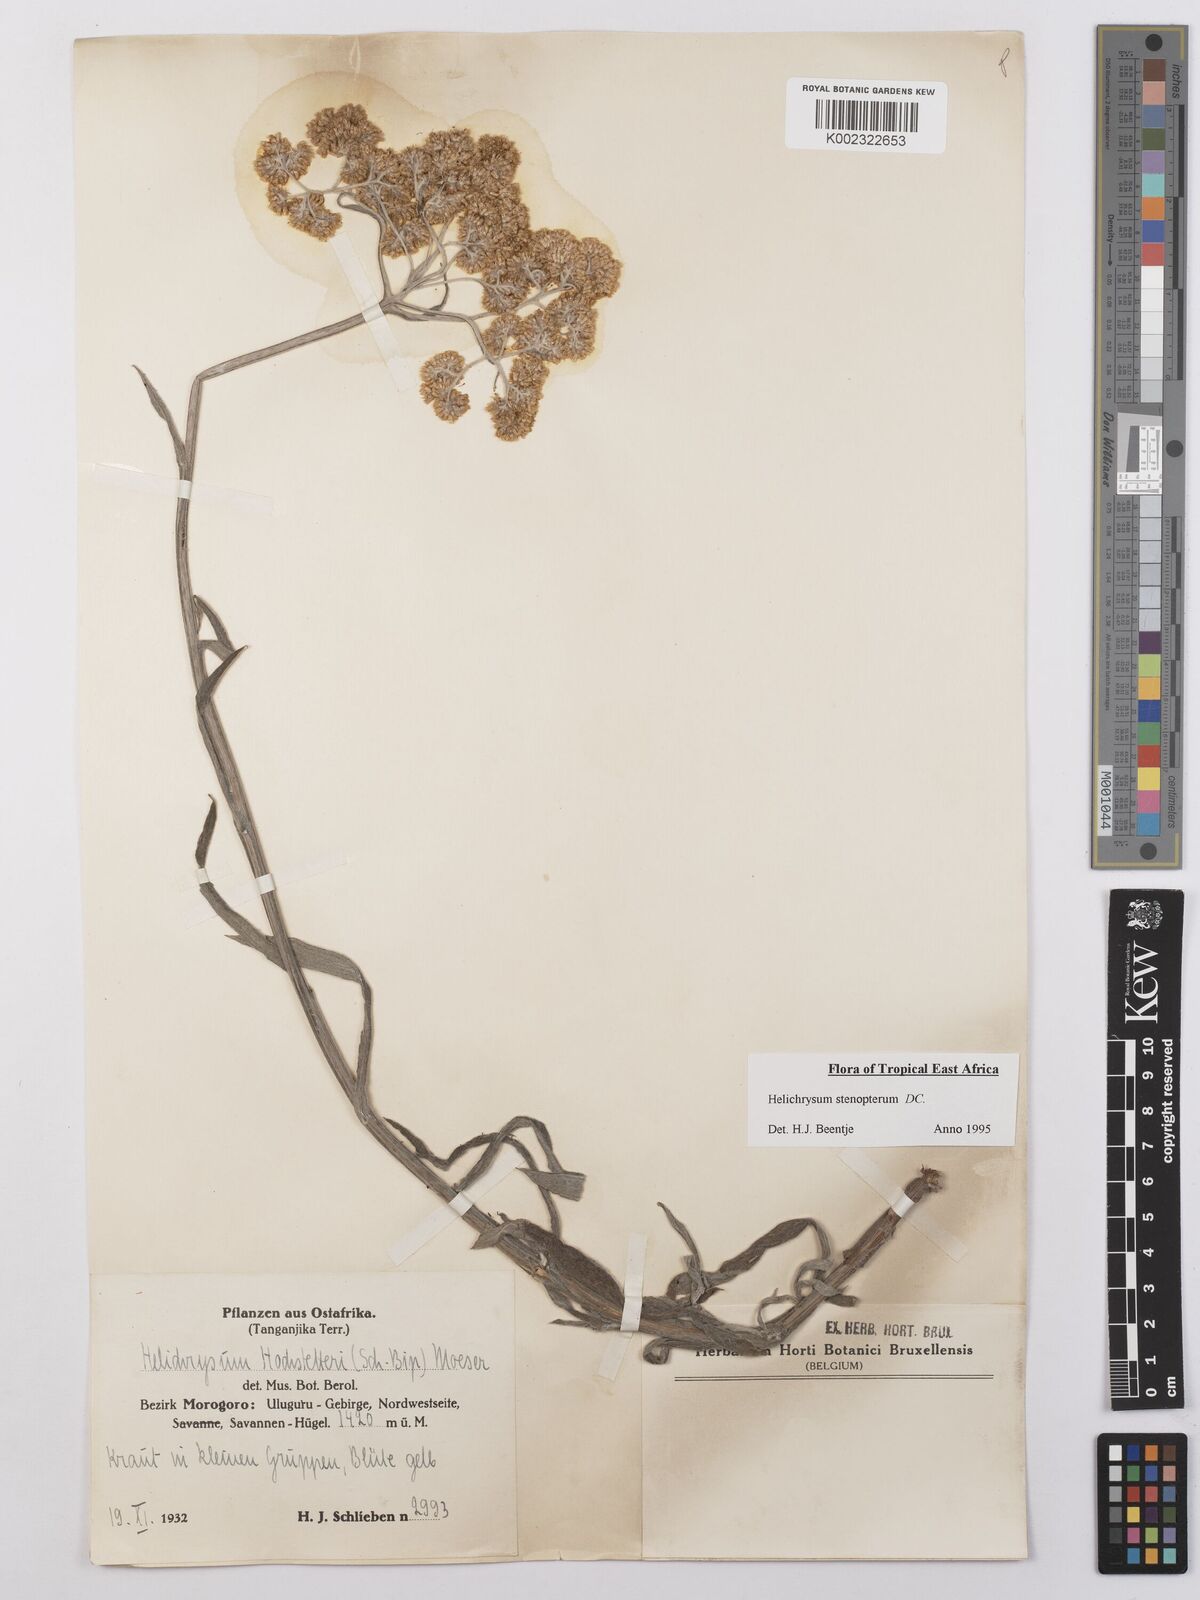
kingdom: Plantae
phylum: Tracheophyta
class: Magnoliopsida
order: Asterales
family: Asteraceae
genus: Helichrysum
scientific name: Helichrysum stenopterum
